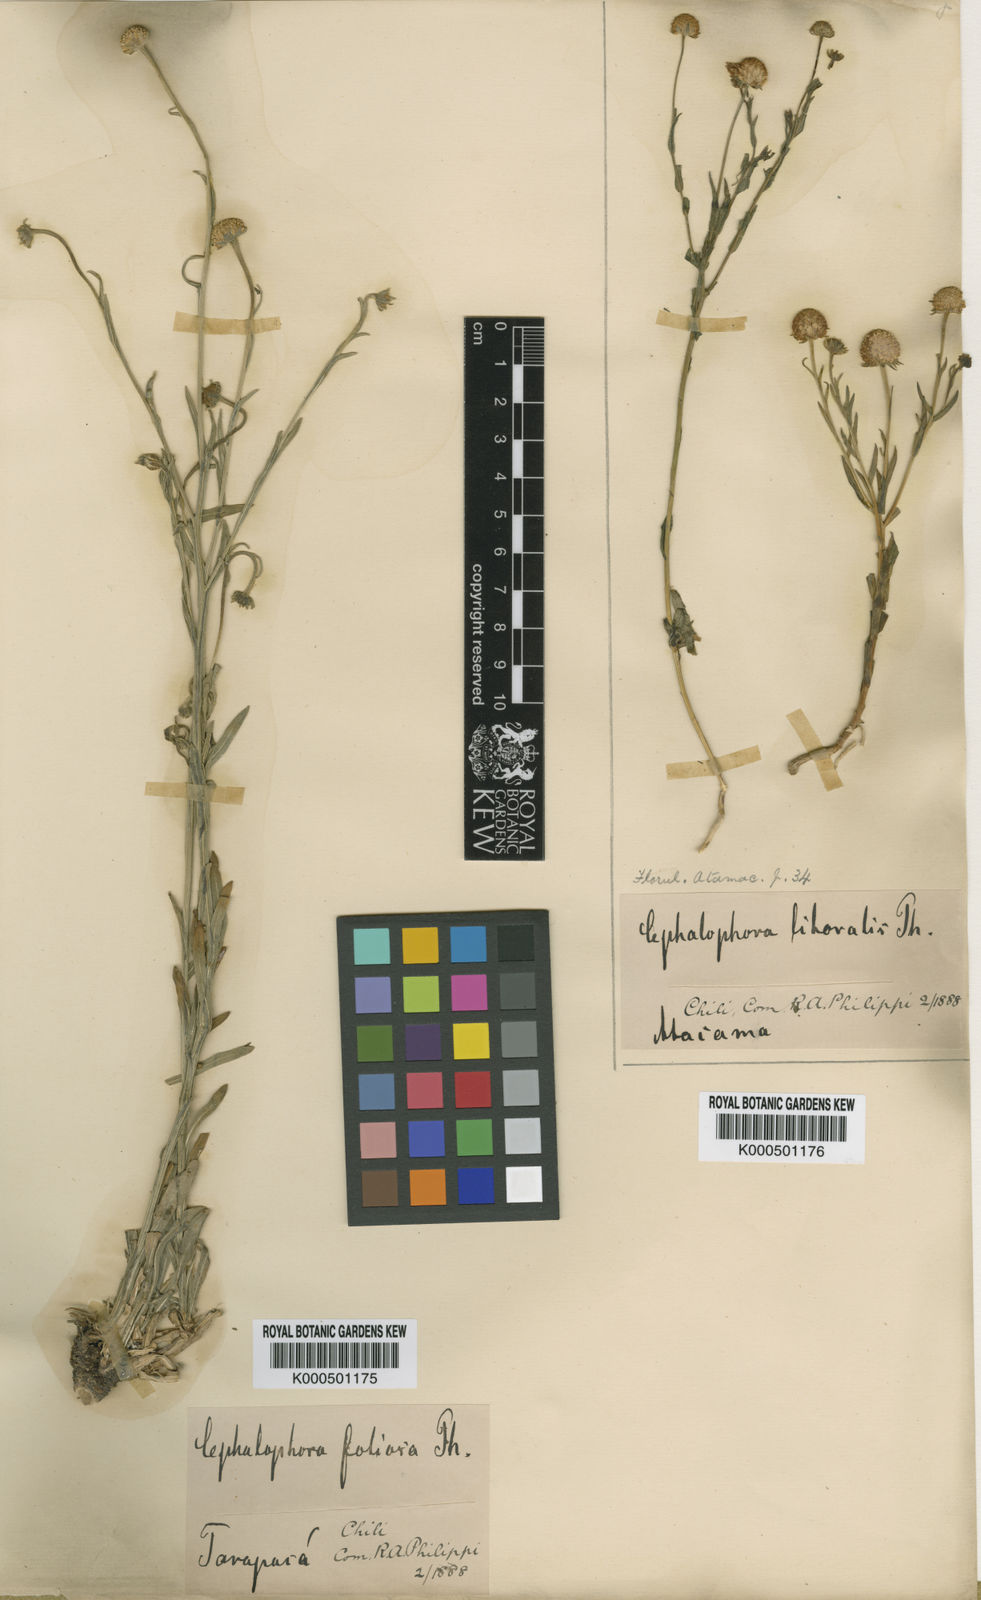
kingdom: Plantae
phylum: Tracheophyta
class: Magnoliopsida
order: Asterales
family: Asteraceae
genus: Helenium
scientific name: Helenium glaucum
